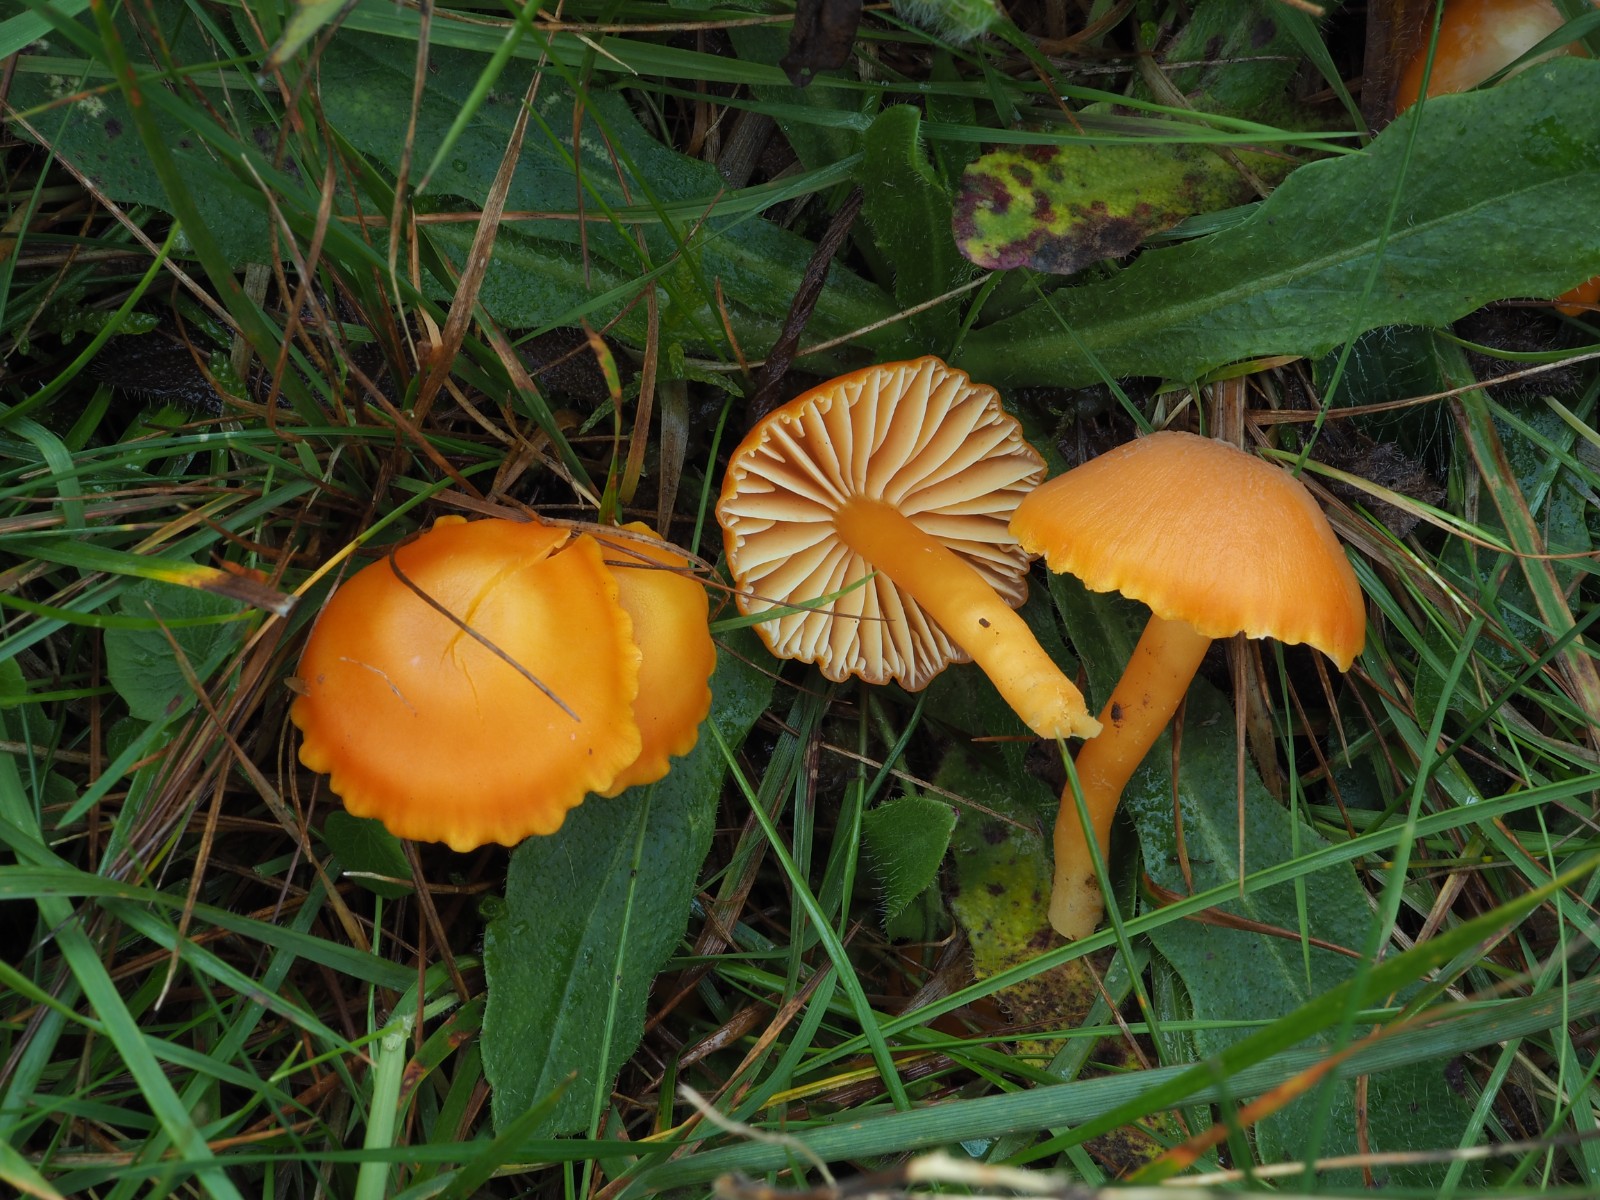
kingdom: Fungi
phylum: Basidiomycota
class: Agaricomycetes
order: Agaricales
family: Hygrophoraceae
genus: Hygrocybe
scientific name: Hygrocybe reidii
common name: honning-vokshat
